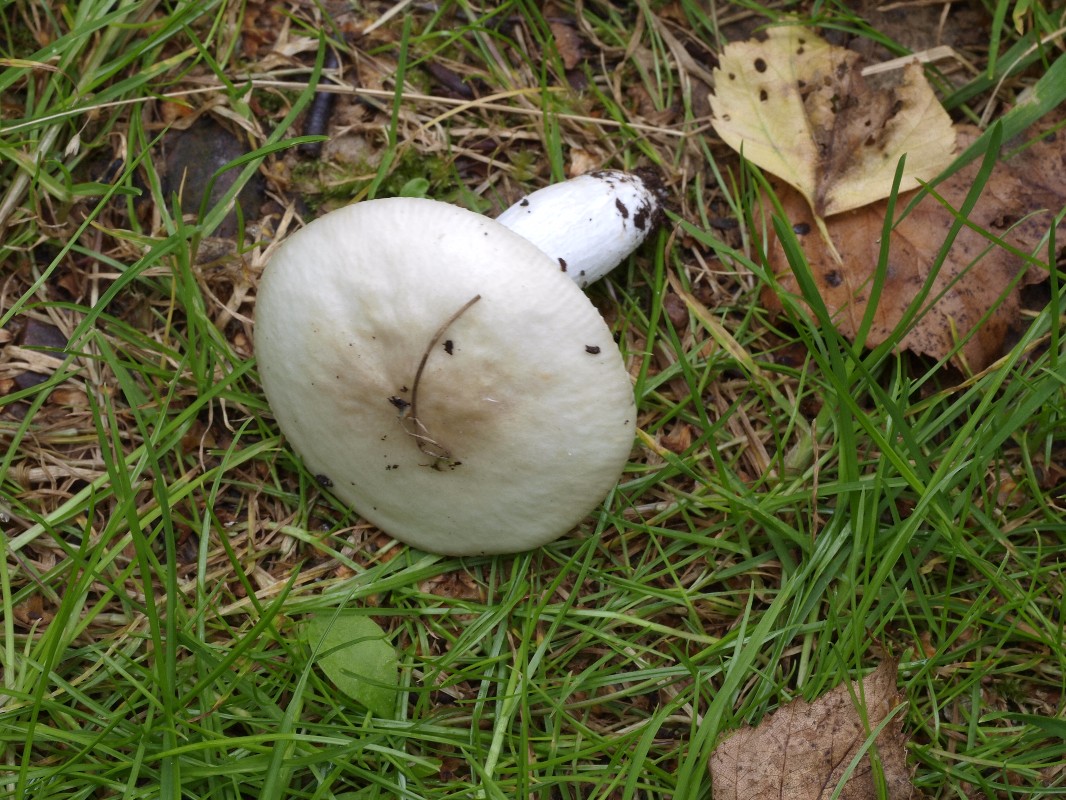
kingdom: Fungi
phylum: Basidiomycota
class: Agaricomycetes
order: Russulales
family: Russulaceae
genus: Russula
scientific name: Russula depallens
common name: falmende skørhat
